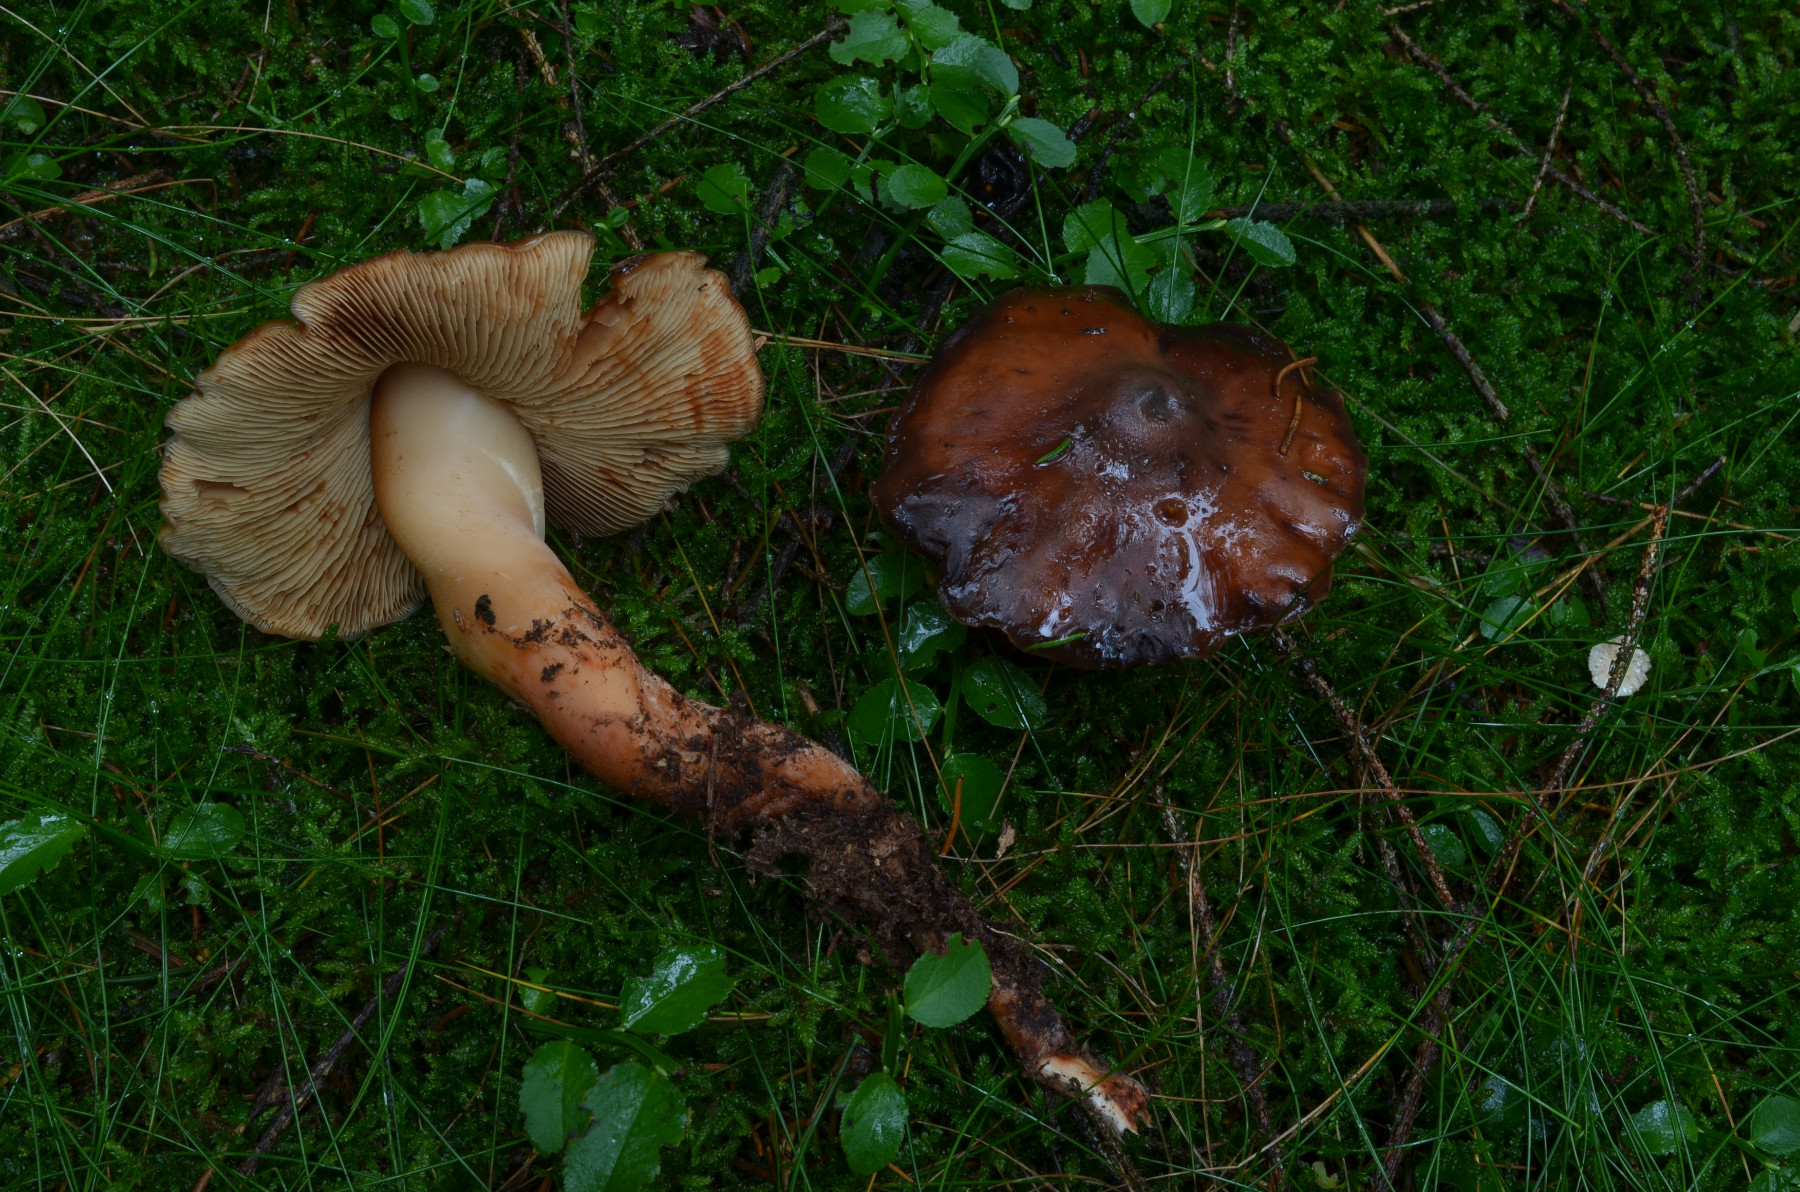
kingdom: Fungi
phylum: Basidiomycota
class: Agaricomycetes
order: Agaricales
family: Hymenogastraceae
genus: Phaeocollybia
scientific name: Phaeocollybia lugubris
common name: stor spidshat
